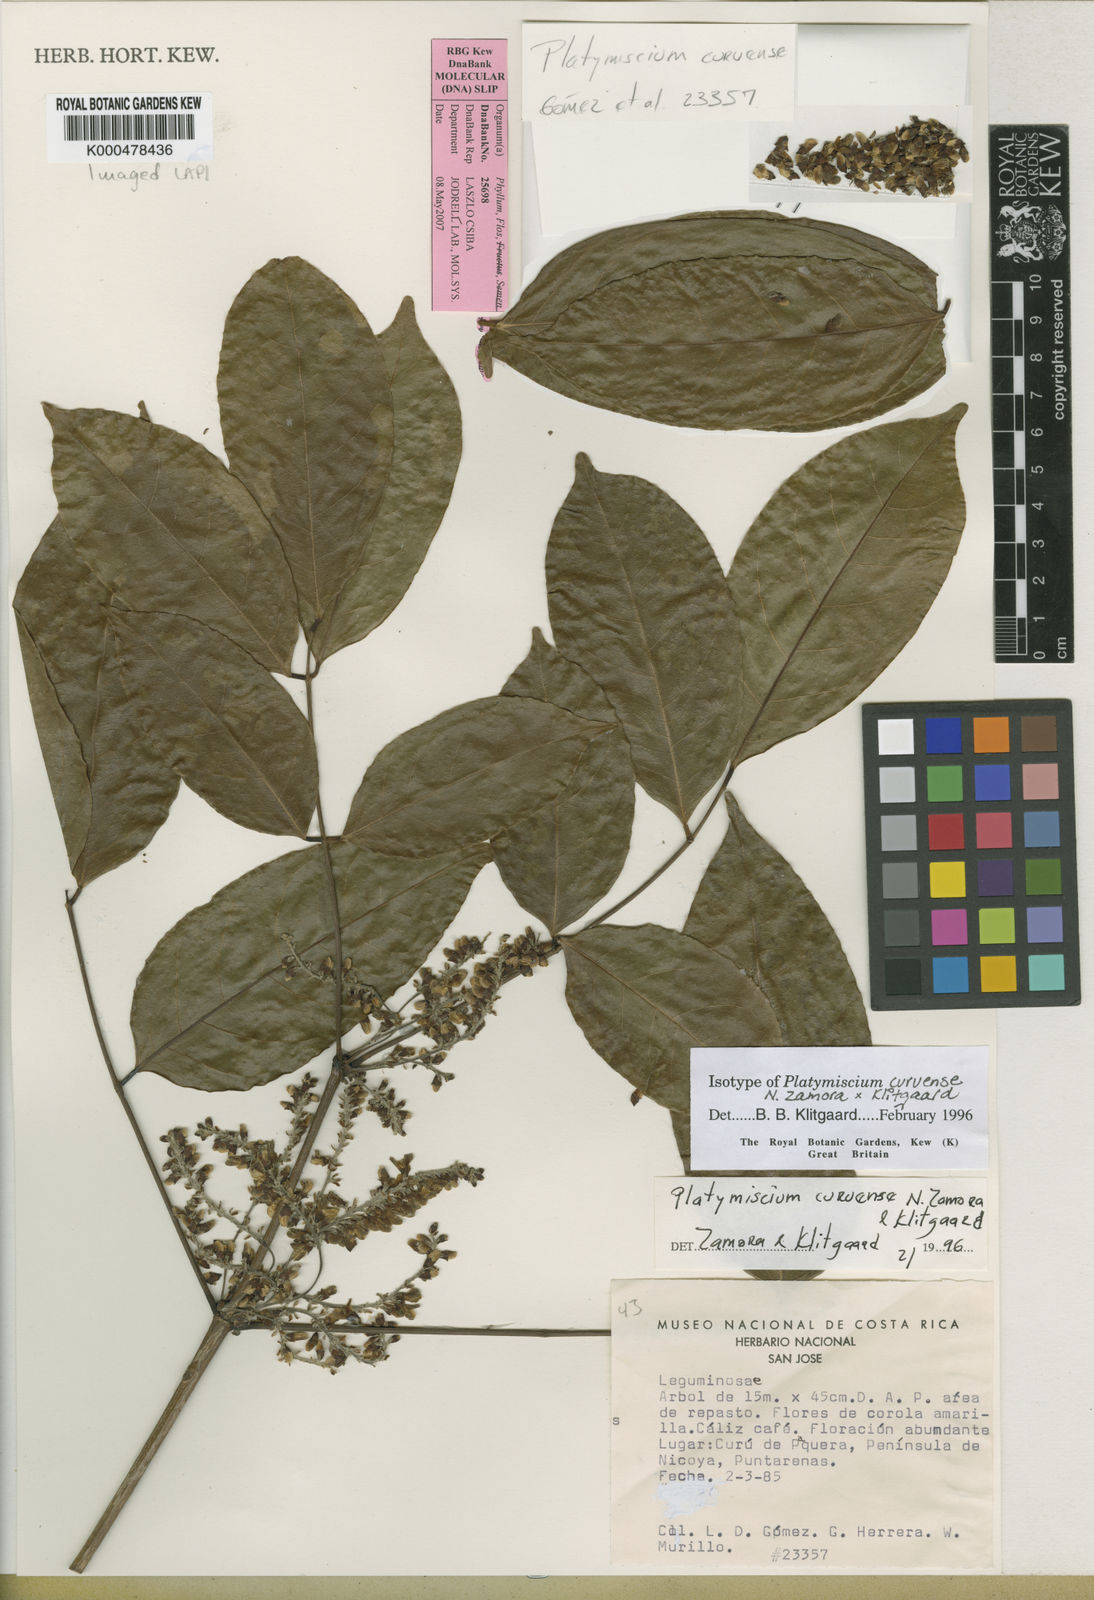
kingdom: Plantae
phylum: Tracheophyta
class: Magnoliopsida
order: Fabales
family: Fabaceae
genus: Platymiscium
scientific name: Platymiscium curuense
